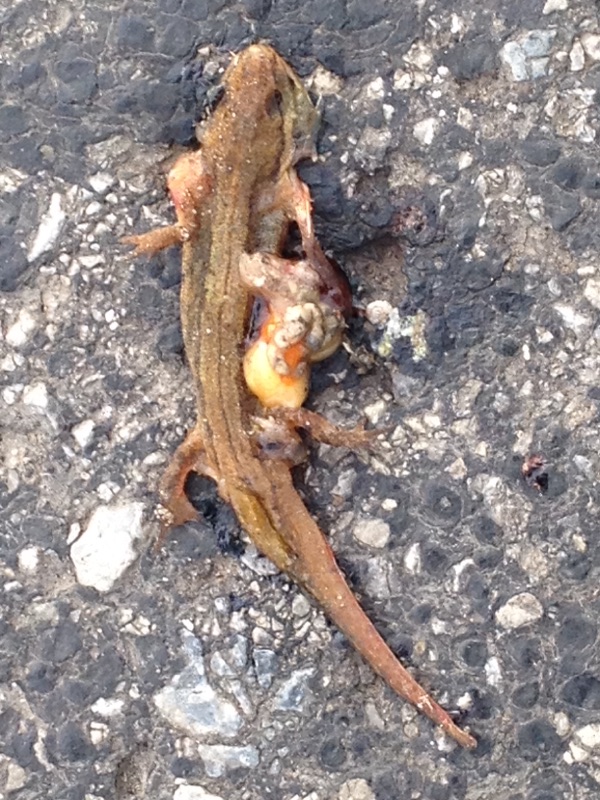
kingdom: Animalia
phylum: Chordata
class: Amphibia
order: Caudata
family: Salamandridae
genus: Lissotriton
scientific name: Lissotriton vulgaris
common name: Smooth newt
